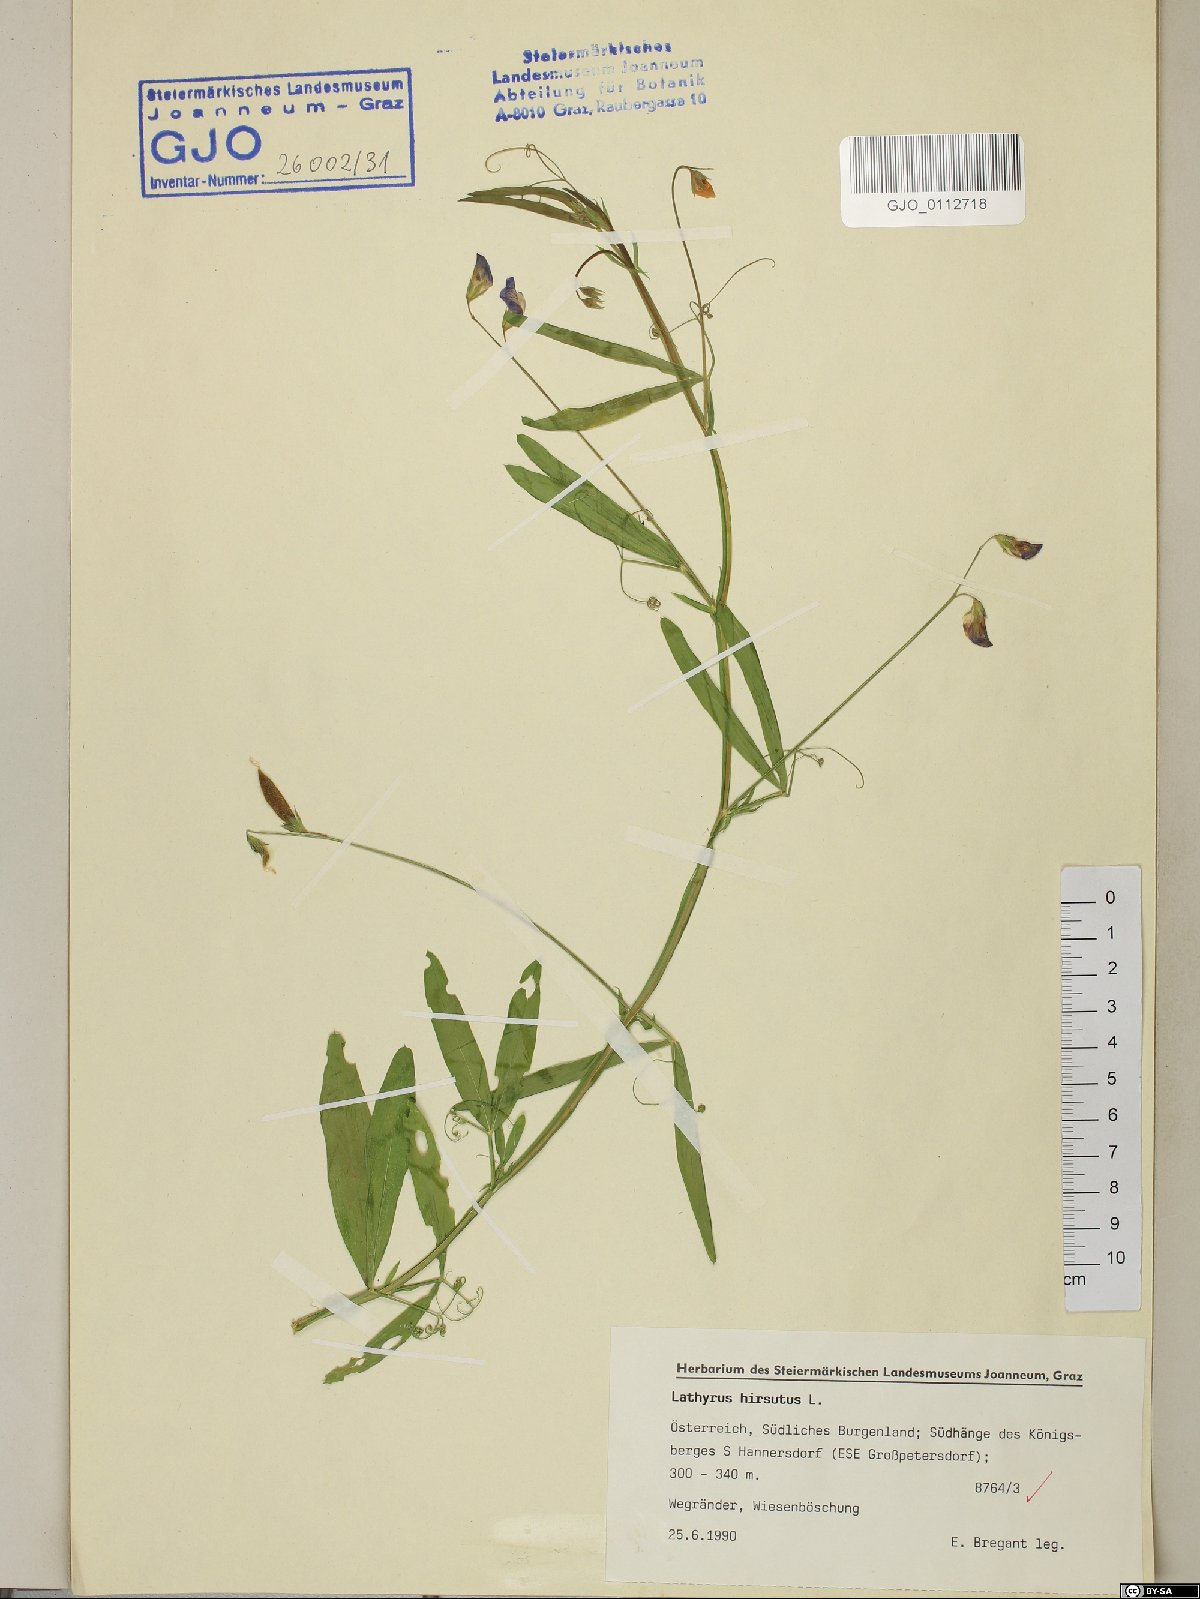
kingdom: Plantae
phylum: Tracheophyta
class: Magnoliopsida
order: Fabales
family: Fabaceae
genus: Lathyrus
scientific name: Lathyrus hirsutus
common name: Hairy vetchling
